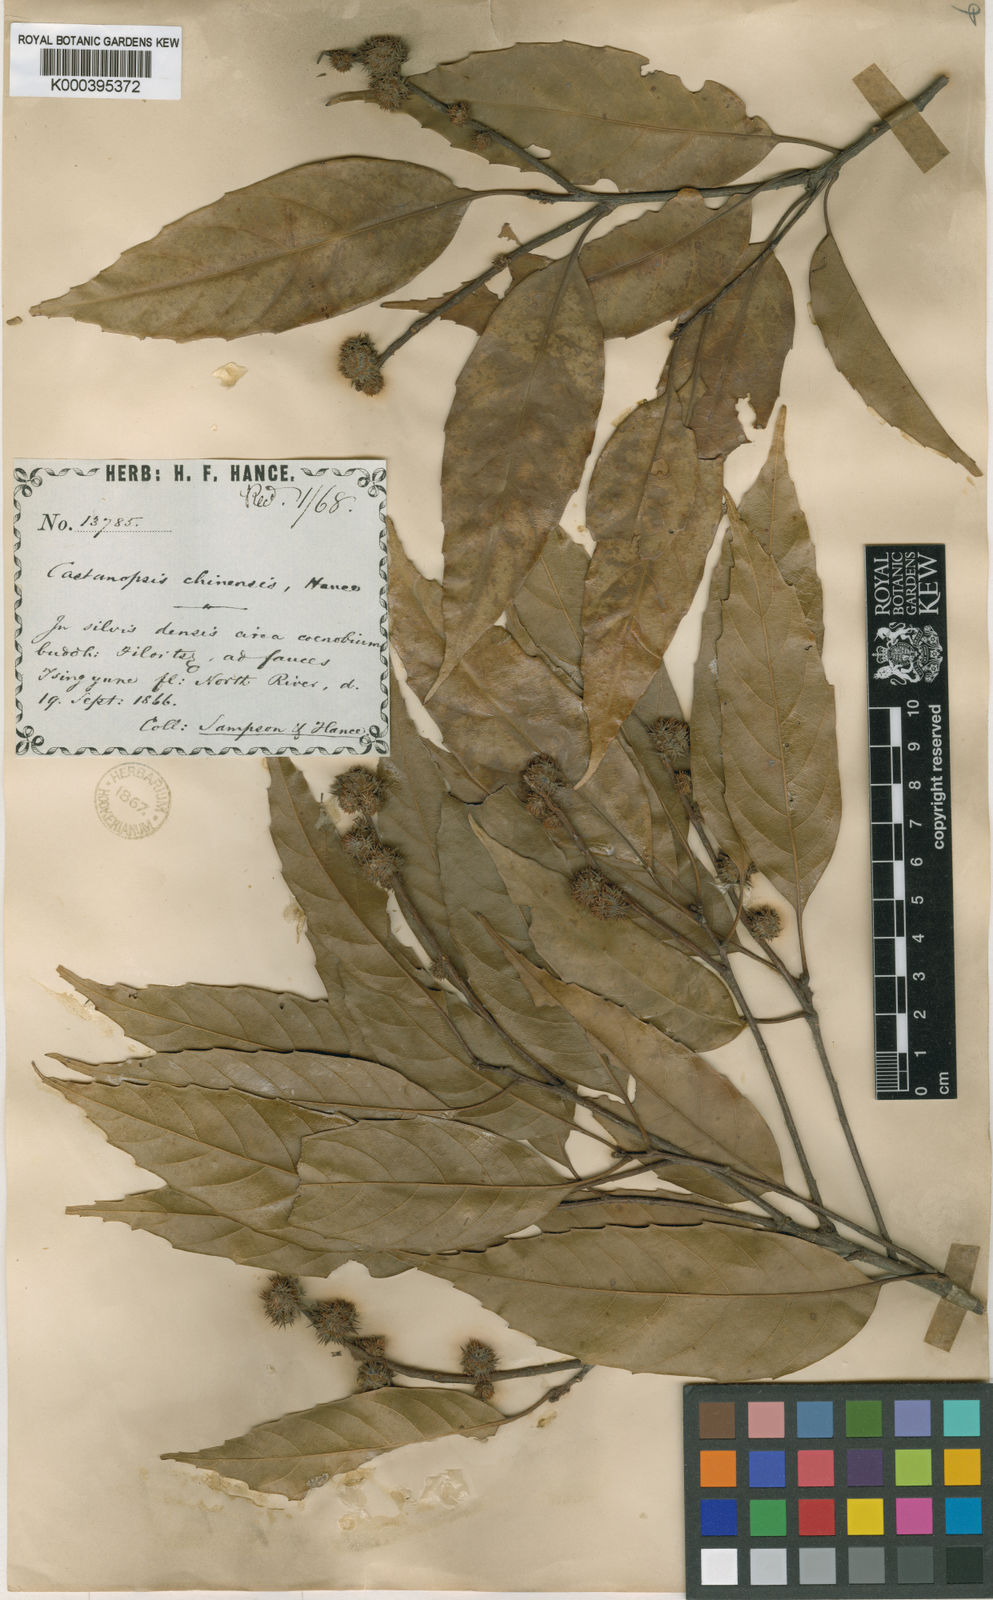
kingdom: Plantae
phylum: Tracheophyta
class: Magnoliopsida
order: Fagales
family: Fagaceae
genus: Castanopsis
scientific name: Castanopsis chinensis
